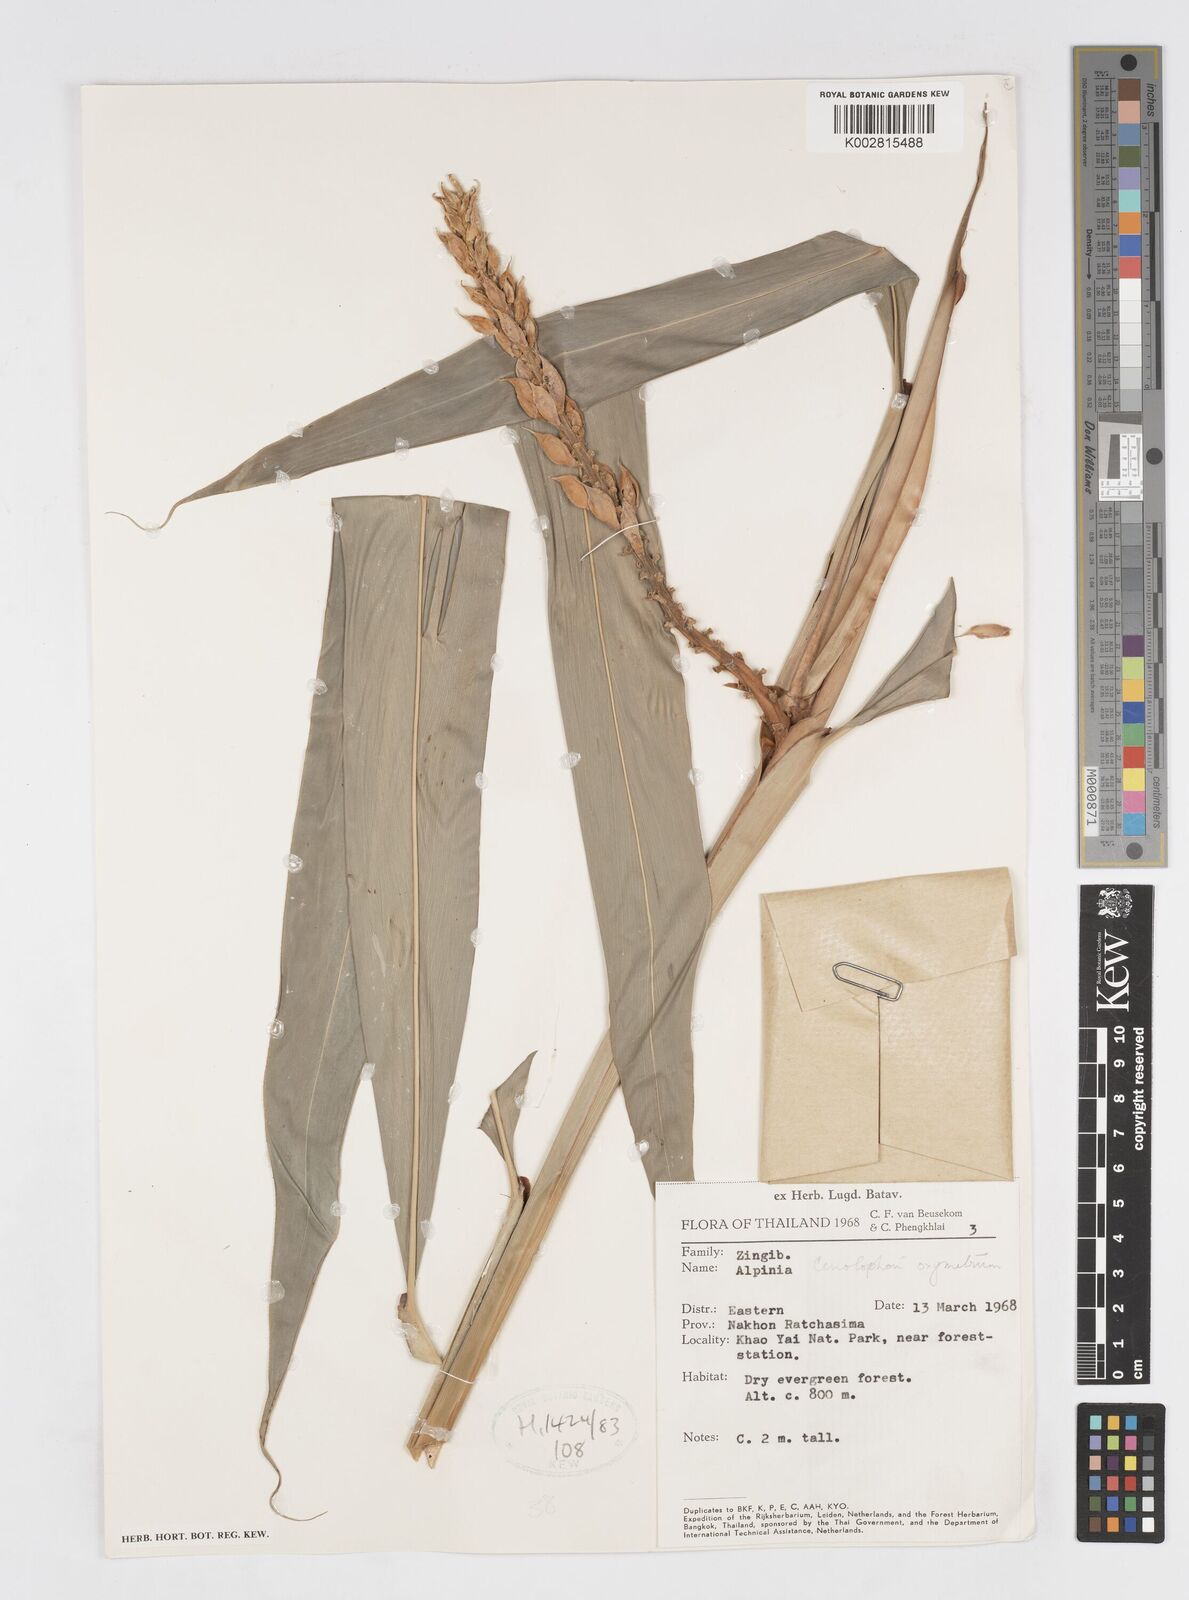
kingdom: Plantae
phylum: Tracheophyta
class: Liliopsida
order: Zingiberales
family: Zingiberaceae
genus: Alpinia
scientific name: Alpinia oxymitra
